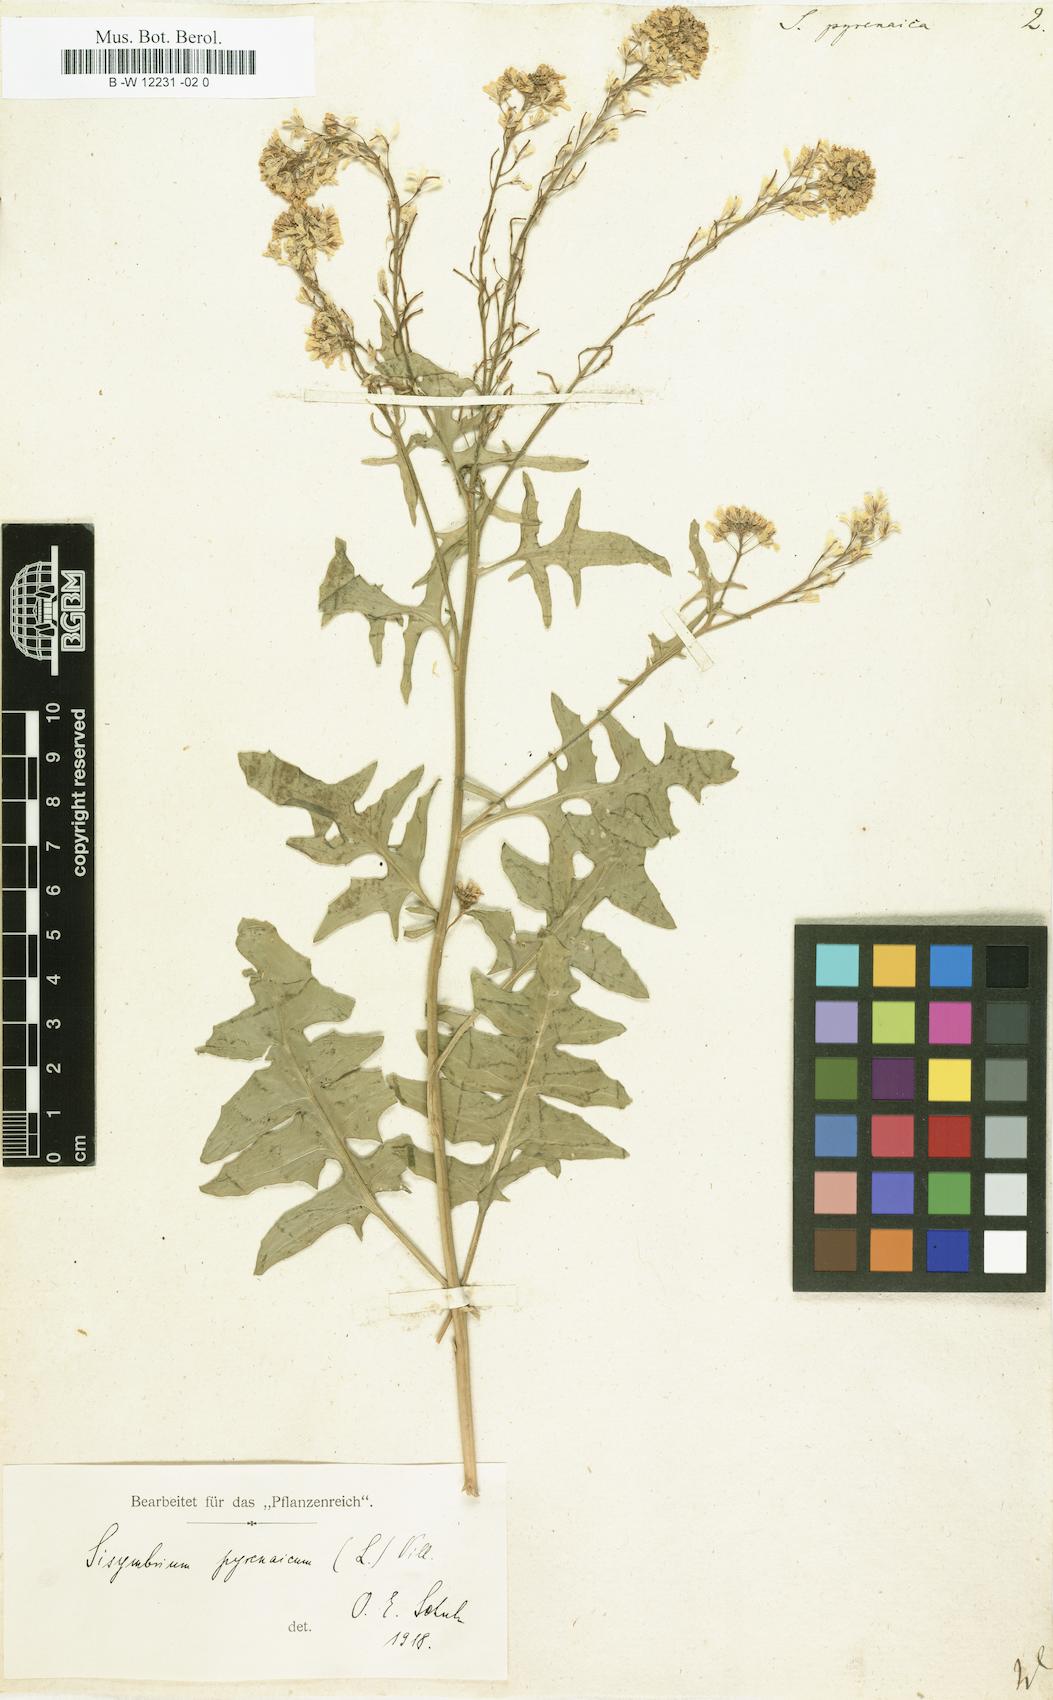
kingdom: Plantae
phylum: Tracheophyta
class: Magnoliopsida
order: Brassicales
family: Brassicaceae
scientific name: Brassicaceae
